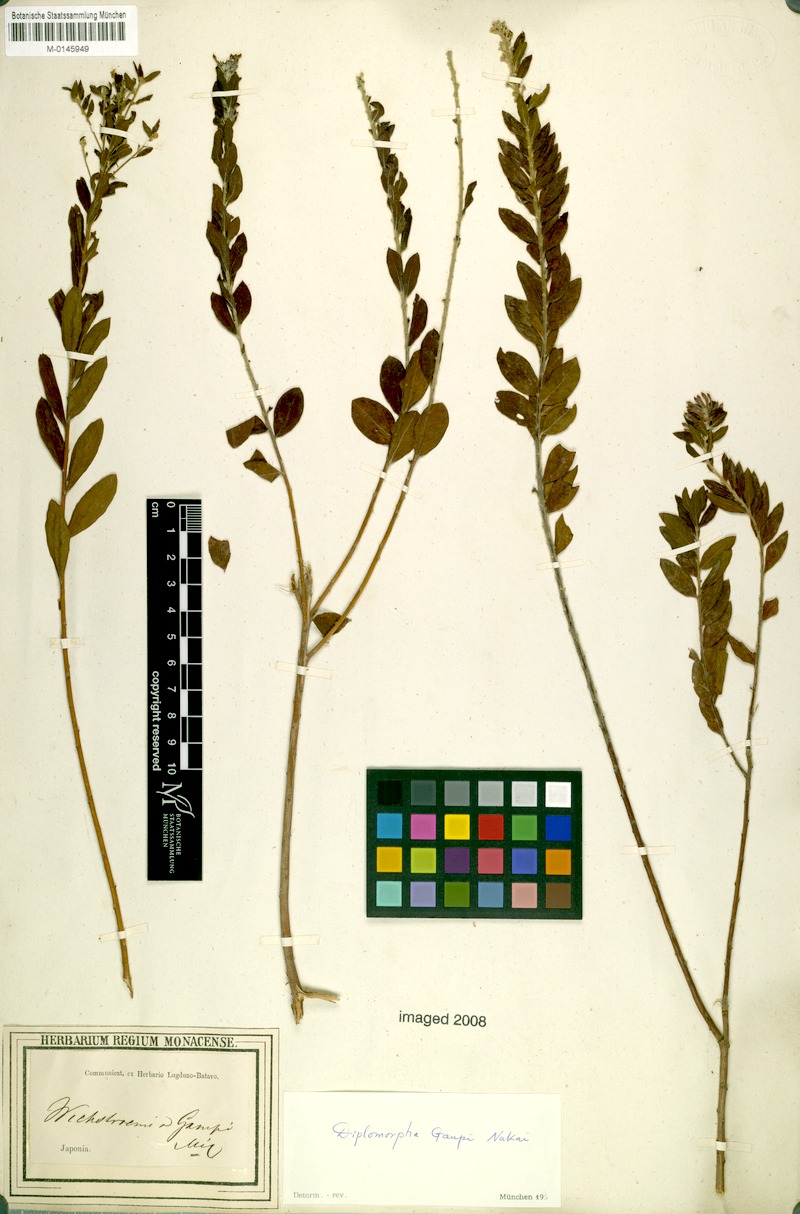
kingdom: Plantae
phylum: Tracheophyta
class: Magnoliopsida
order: Malvales
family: Thymelaeaceae
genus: Wikstroemia
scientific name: Wikstroemia ganpi
